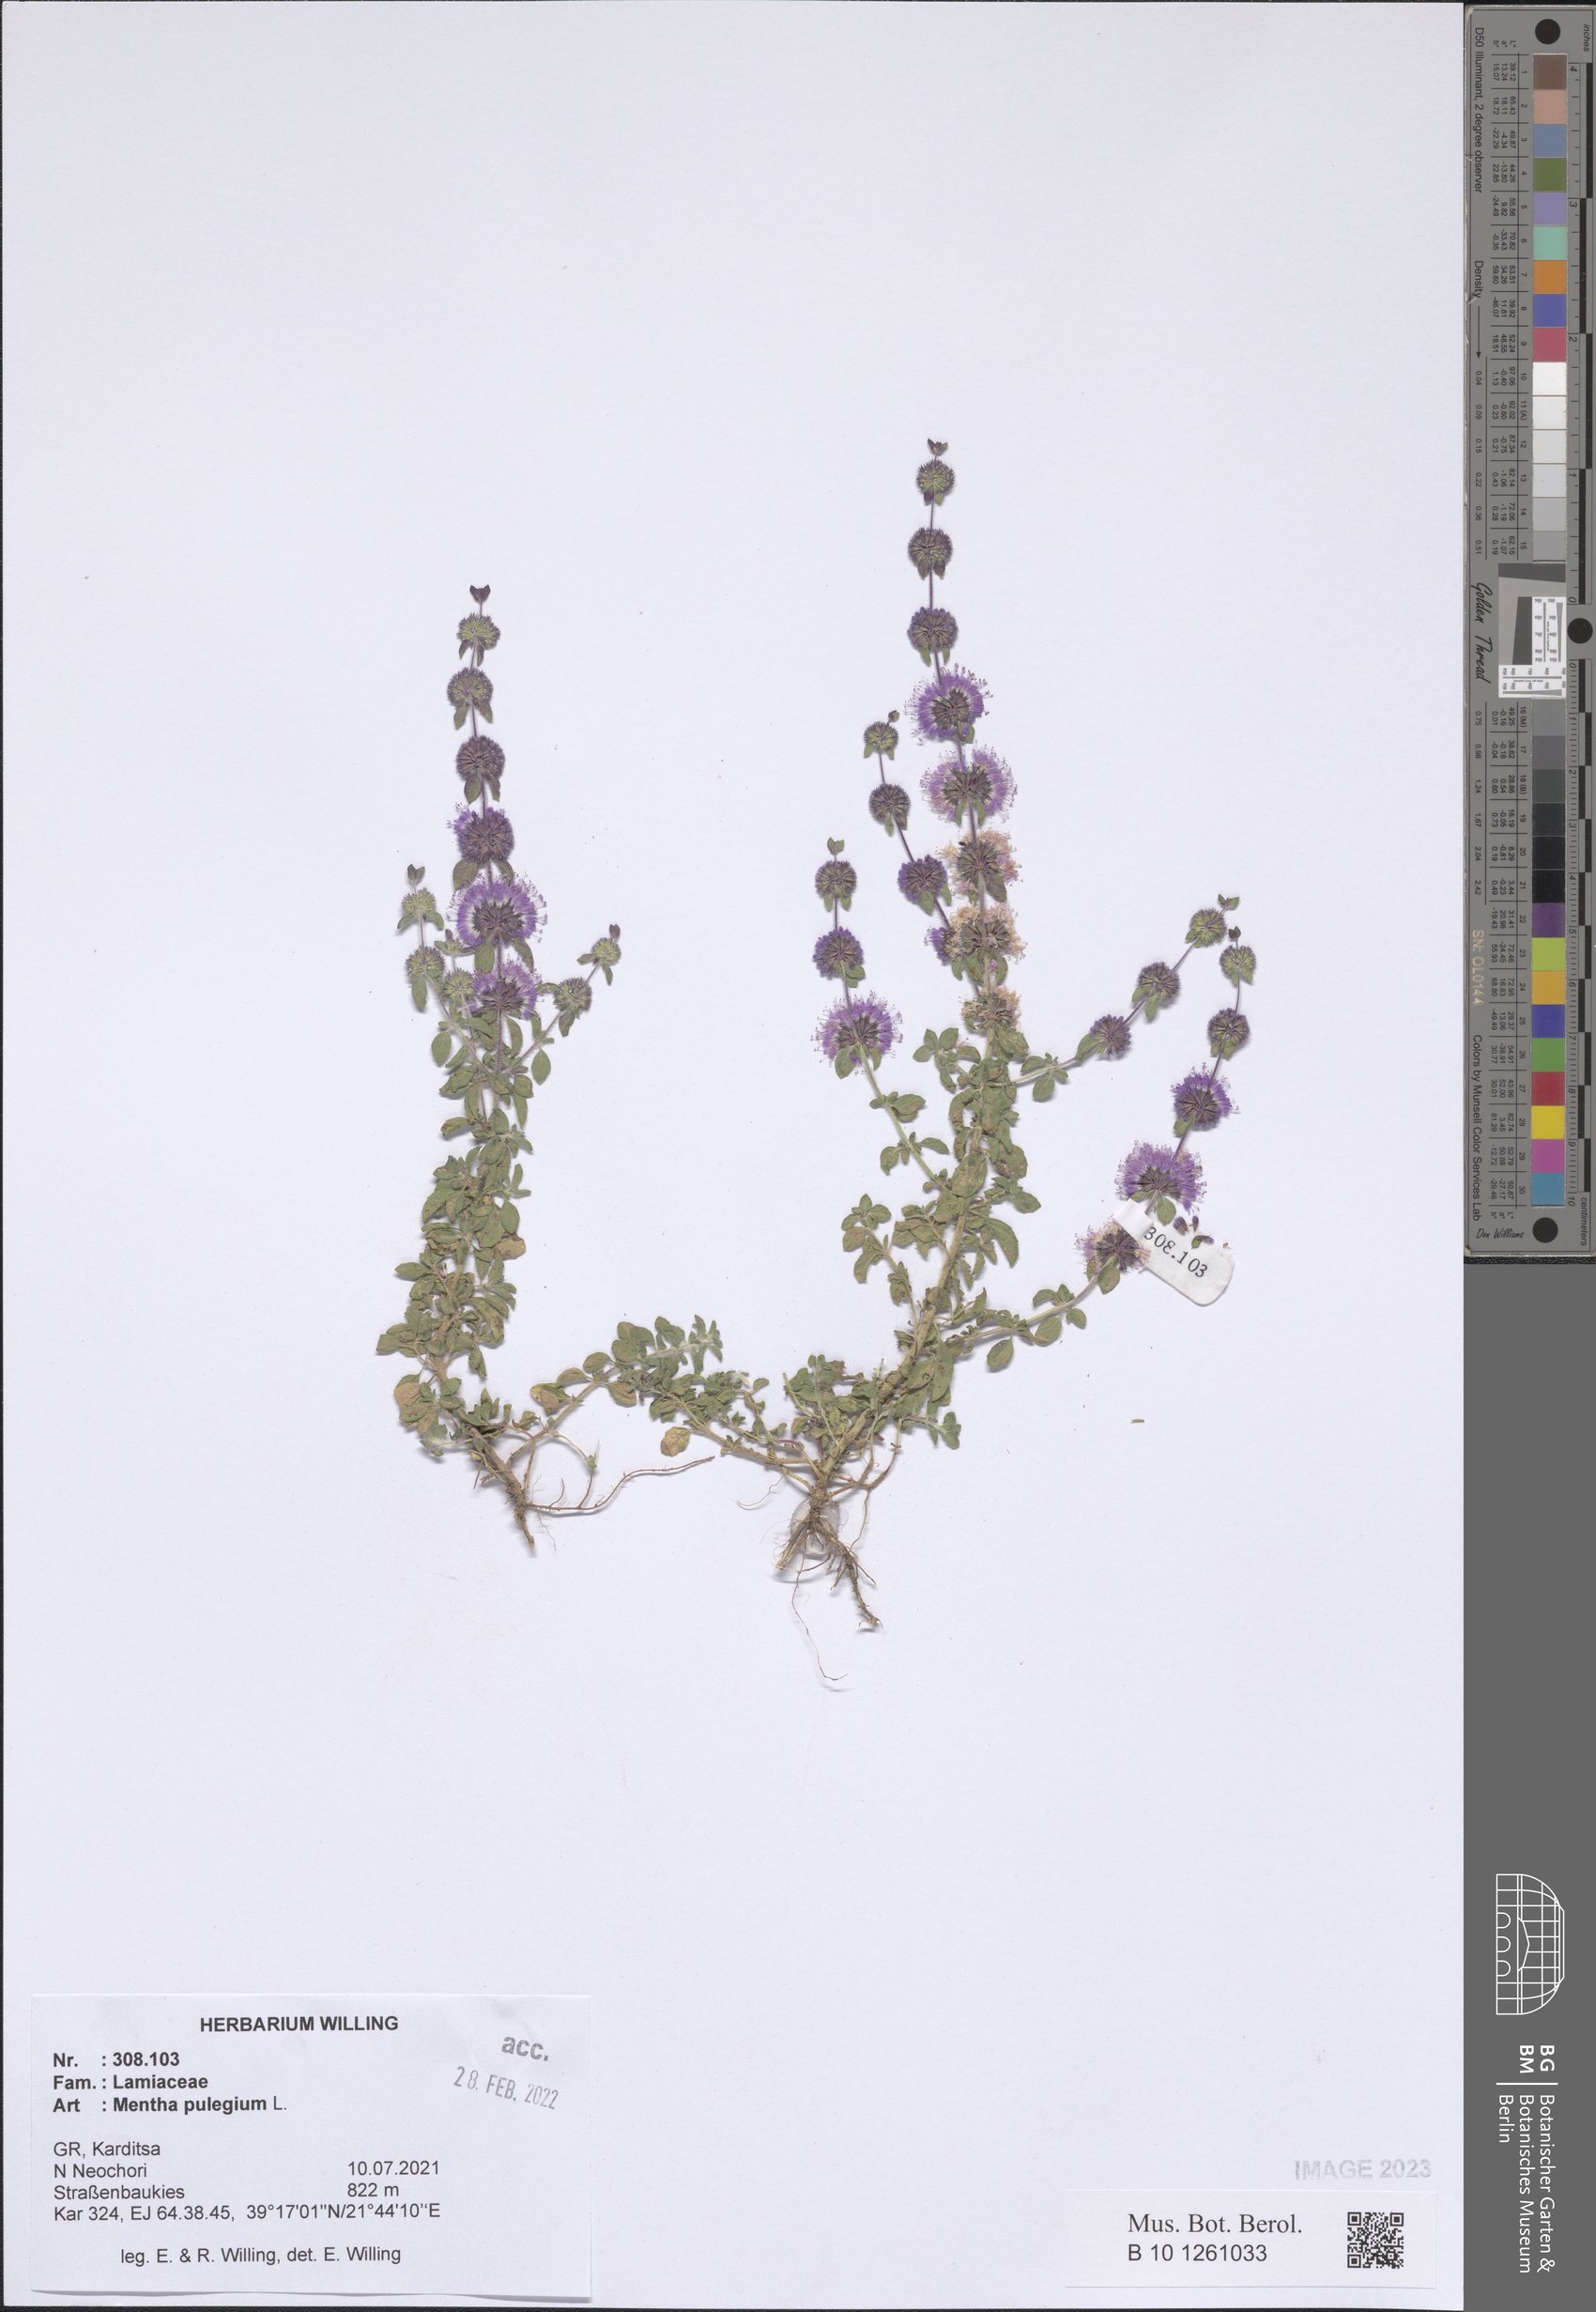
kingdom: Plantae
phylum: Tracheophyta
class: Magnoliopsida
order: Lamiales
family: Lamiaceae
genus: Mentha
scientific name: Mentha pulegium
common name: Pennyroyal
